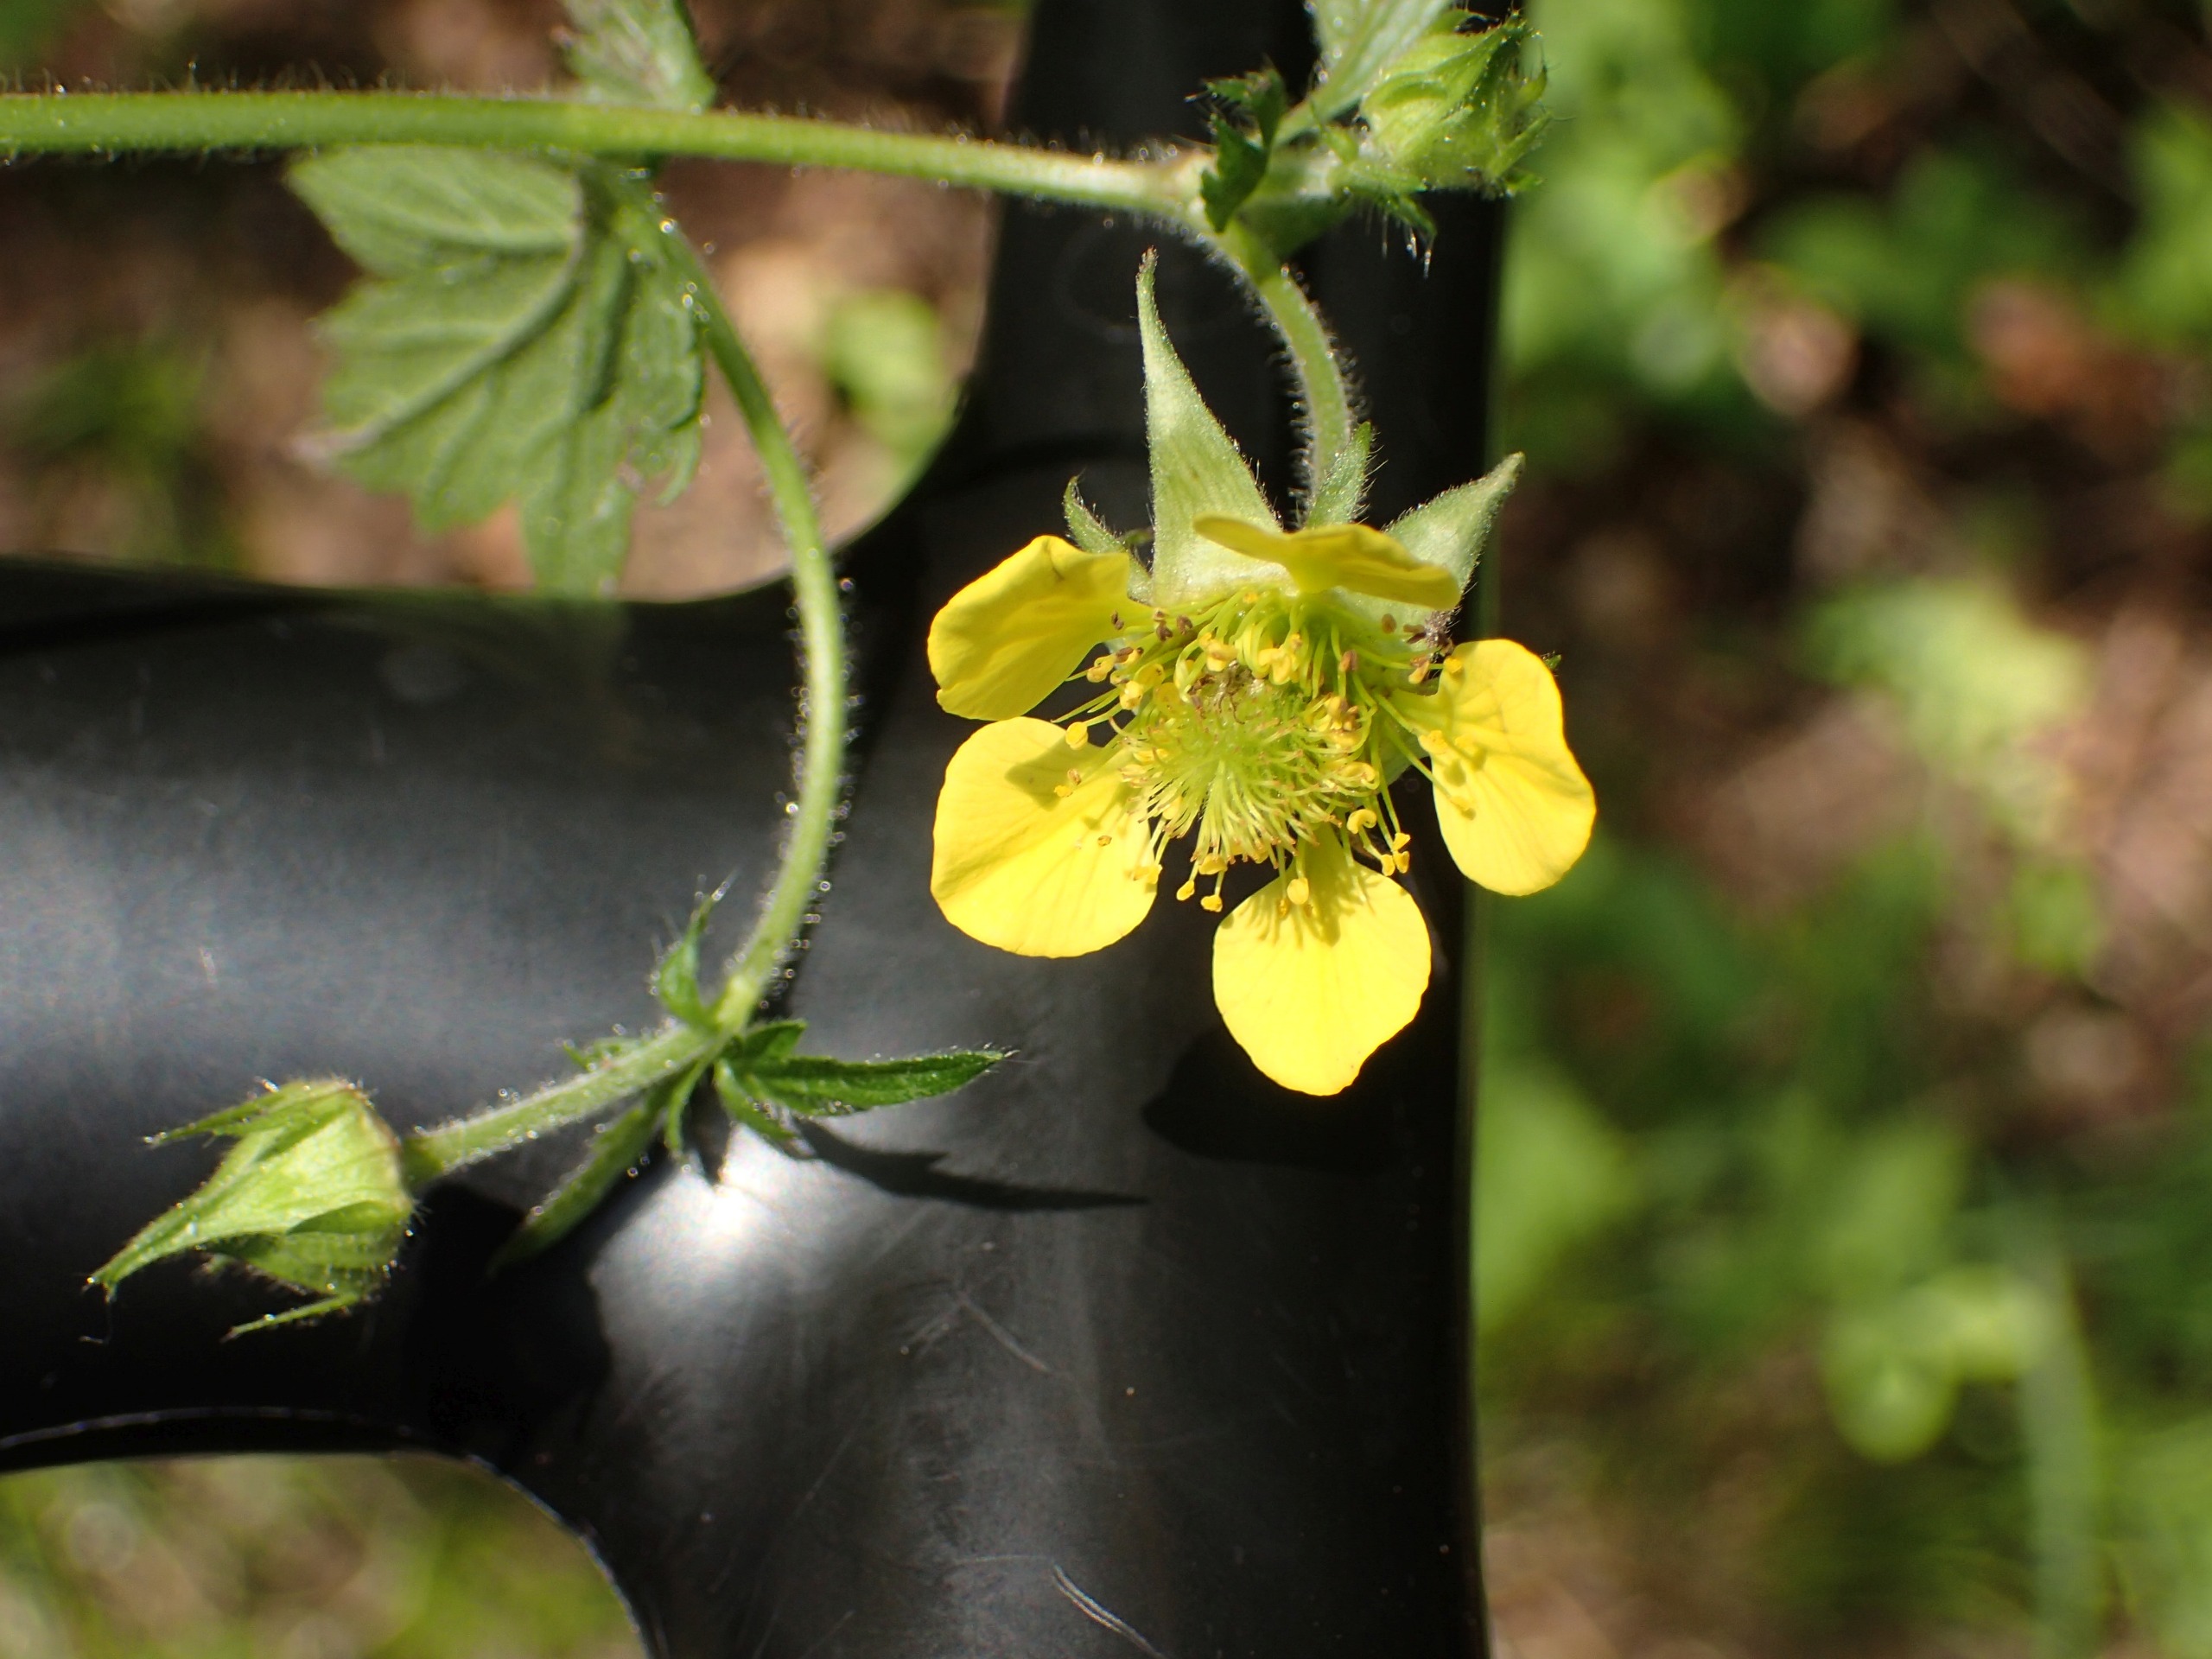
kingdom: Plantae
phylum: Tracheophyta
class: Magnoliopsida
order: Rosales
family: Rosaceae
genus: Geum
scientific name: Geum urbanum
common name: Feber-nellikerod
